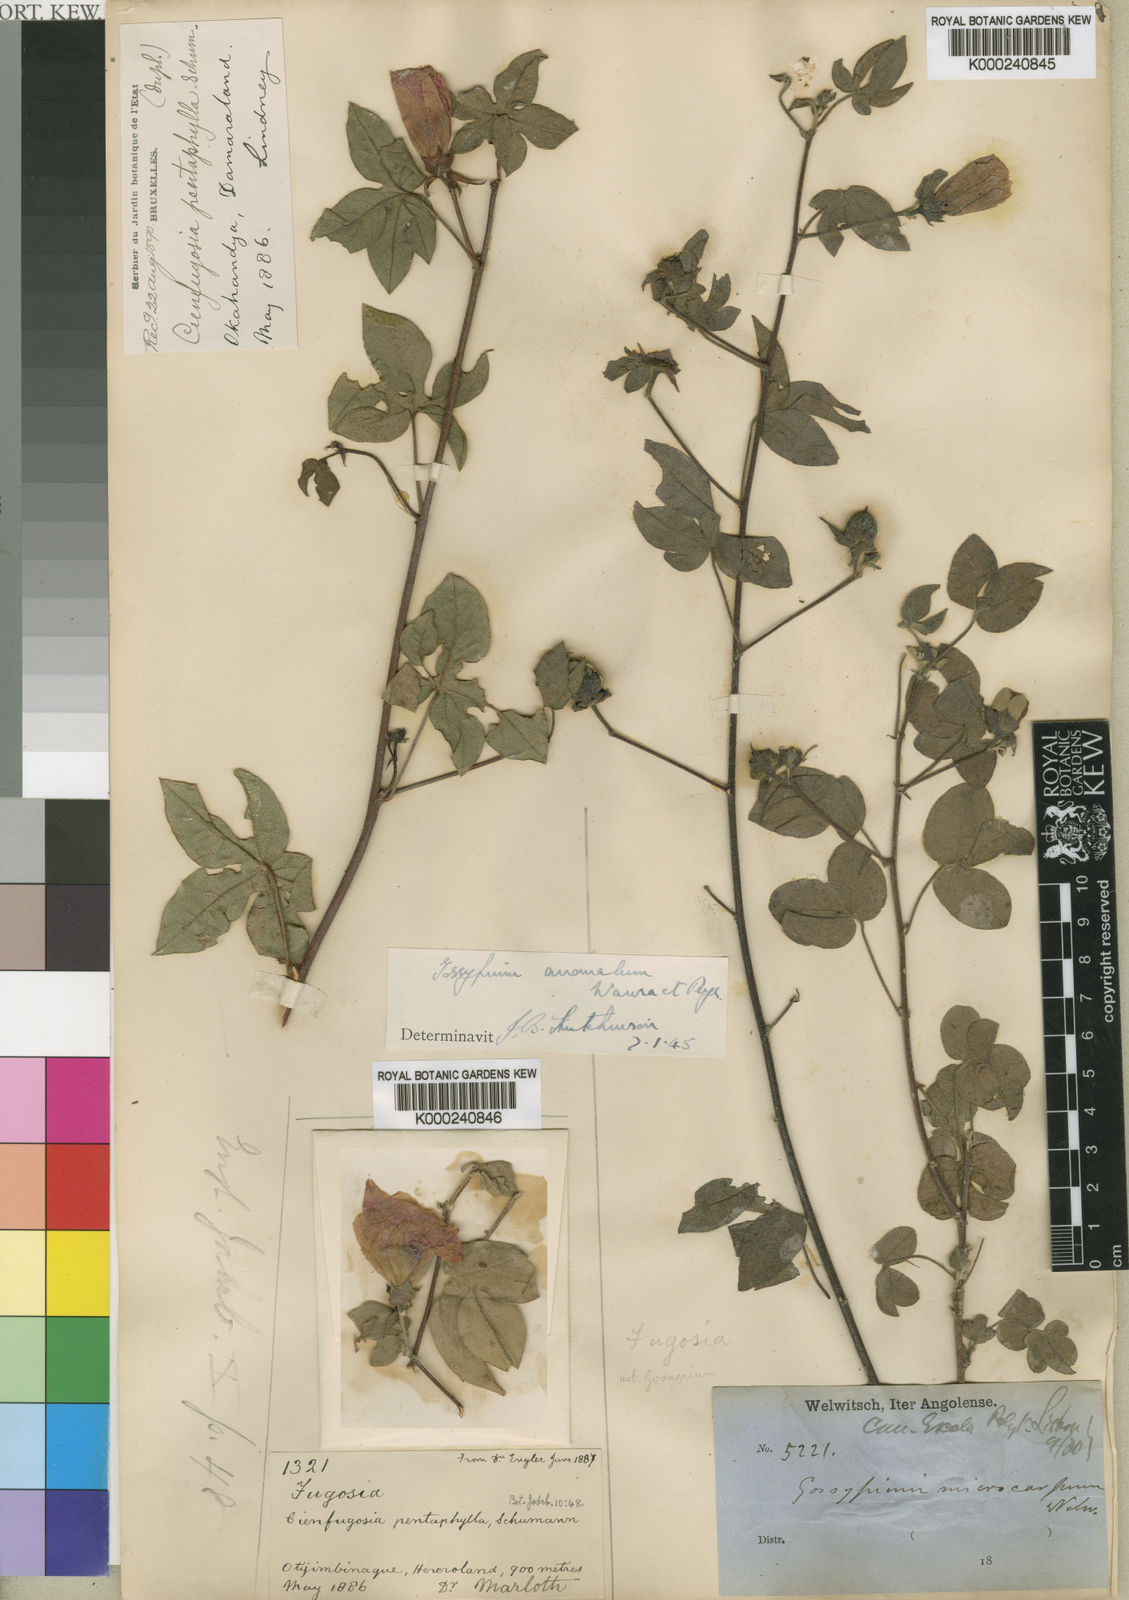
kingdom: Plantae
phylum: Tracheophyta
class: Magnoliopsida
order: Malvales
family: Malvaceae
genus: Gossypium
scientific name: Gossypium
